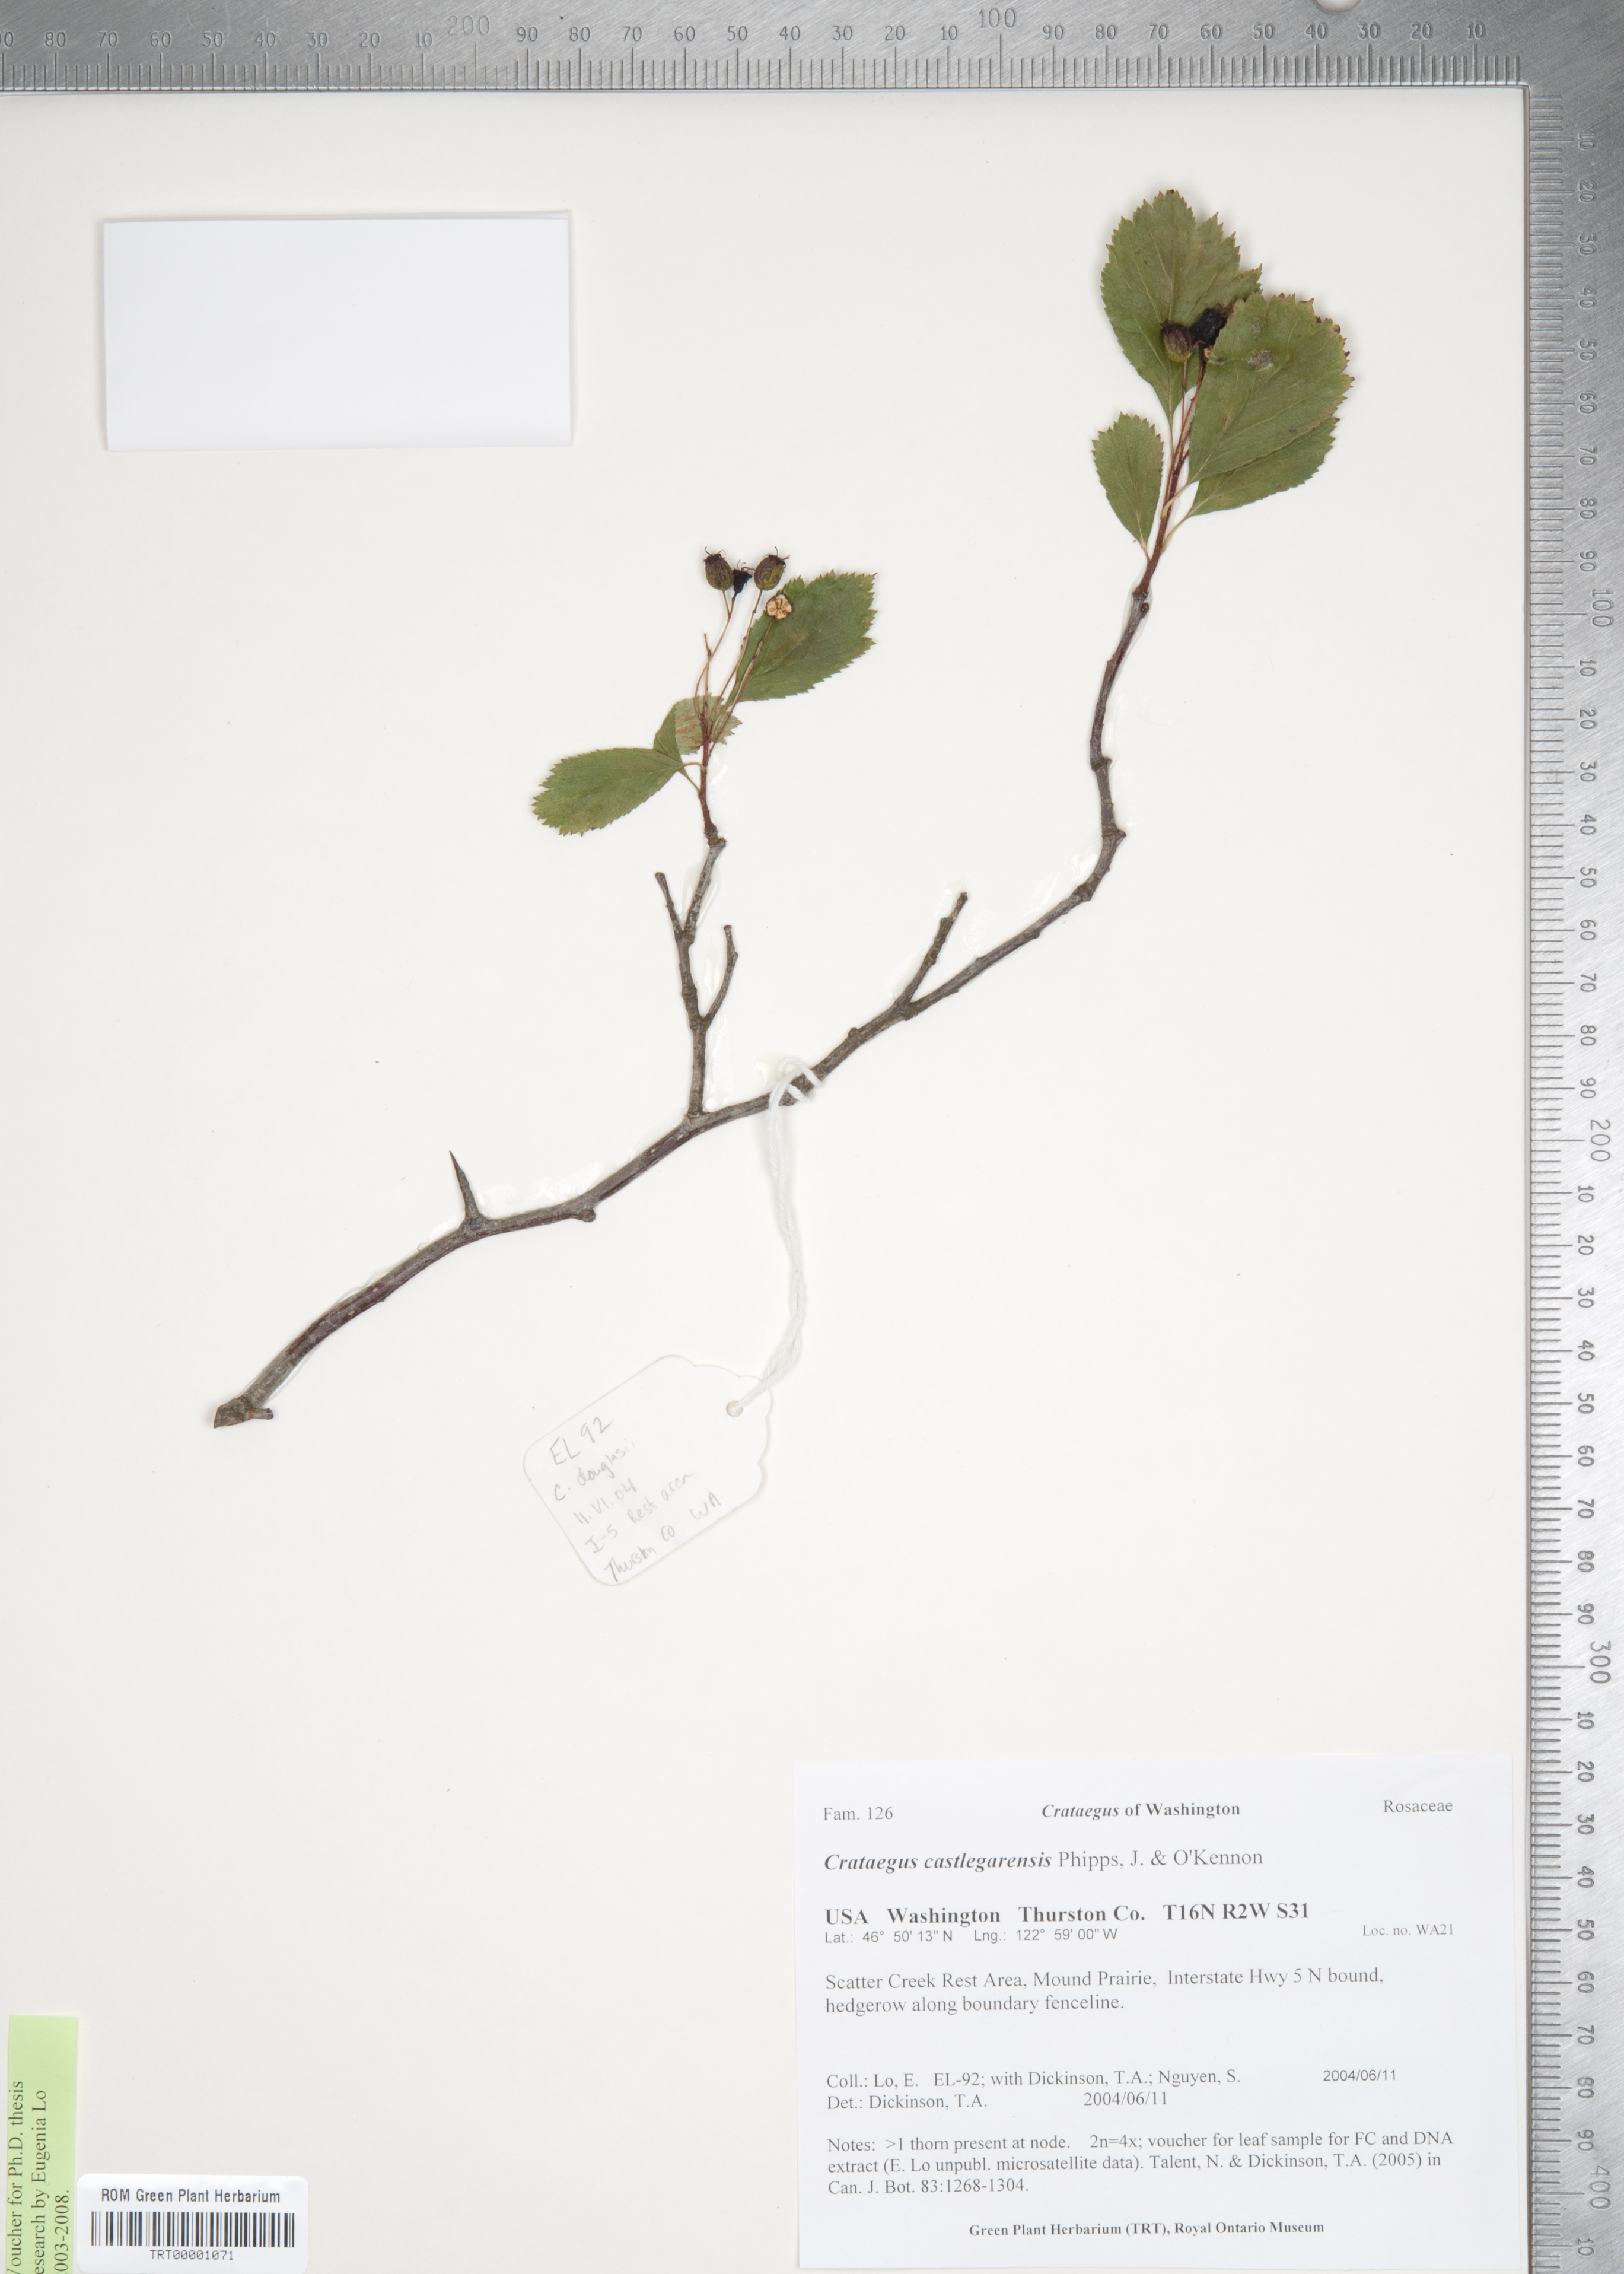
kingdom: Plantae
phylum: Tracheophyta
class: Magnoliopsida
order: Rosales
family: Rosaceae
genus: Crataegus
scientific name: Crataegus castlegarensis
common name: Castlegar hawthorn
